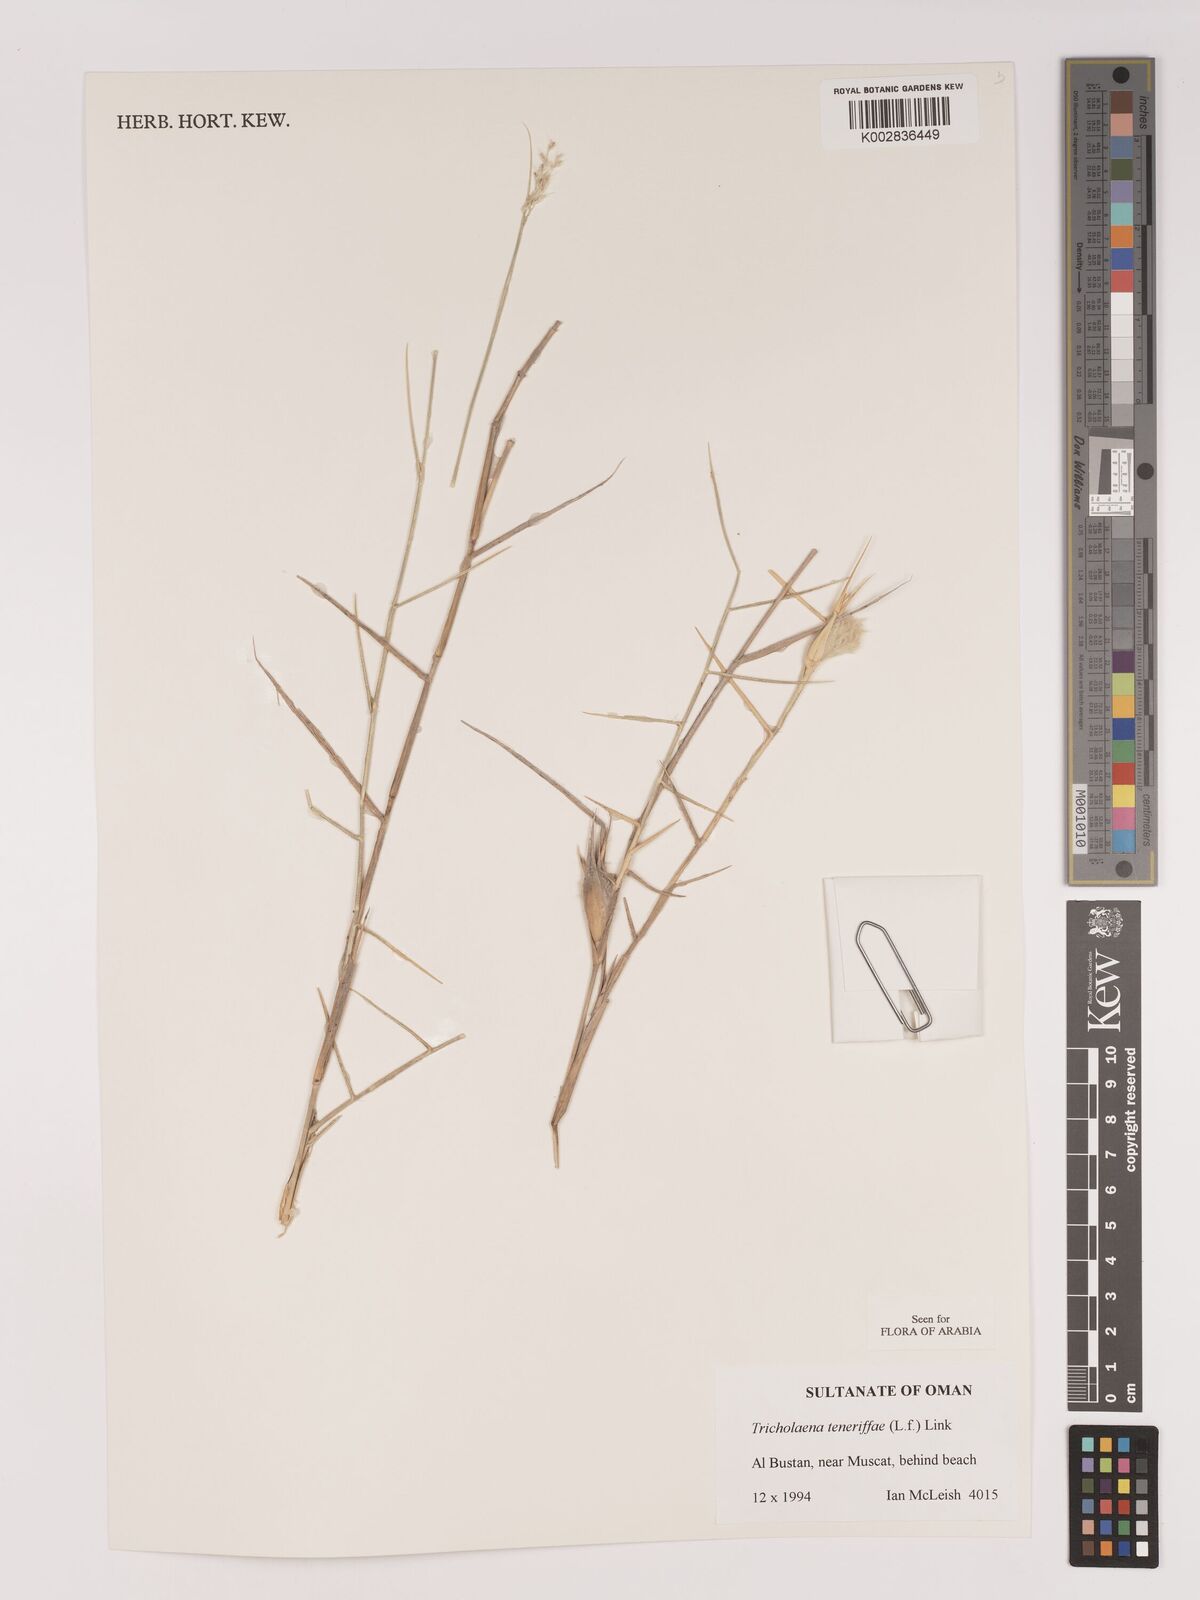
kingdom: Plantae
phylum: Tracheophyta
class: Liliopsida
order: Poales
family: Poaceae
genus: Tricholaena
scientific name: Tricholaena teneriffae
